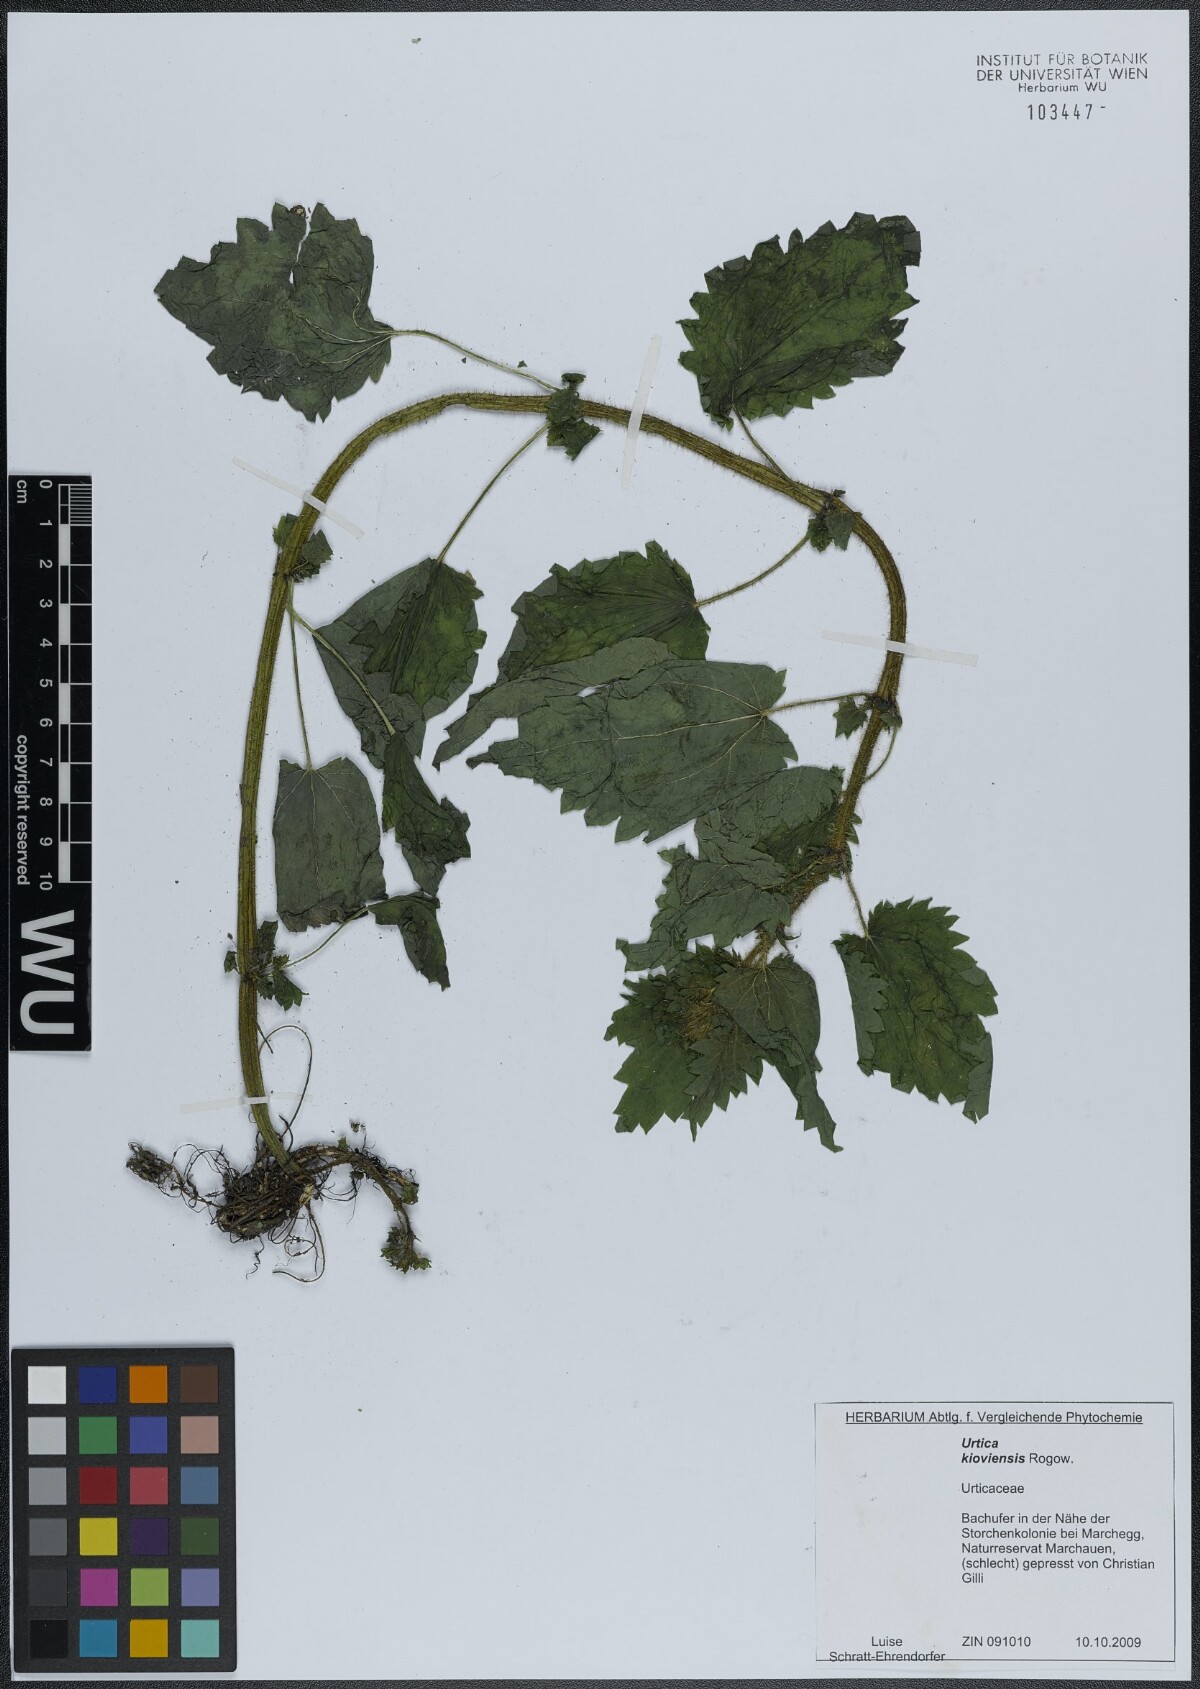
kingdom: Plantae
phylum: Tracheophyta
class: Magnoliopsida
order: Rosales
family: Urticaceae
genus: Urtica
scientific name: Urtica kioviensis
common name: Kievan nettle
